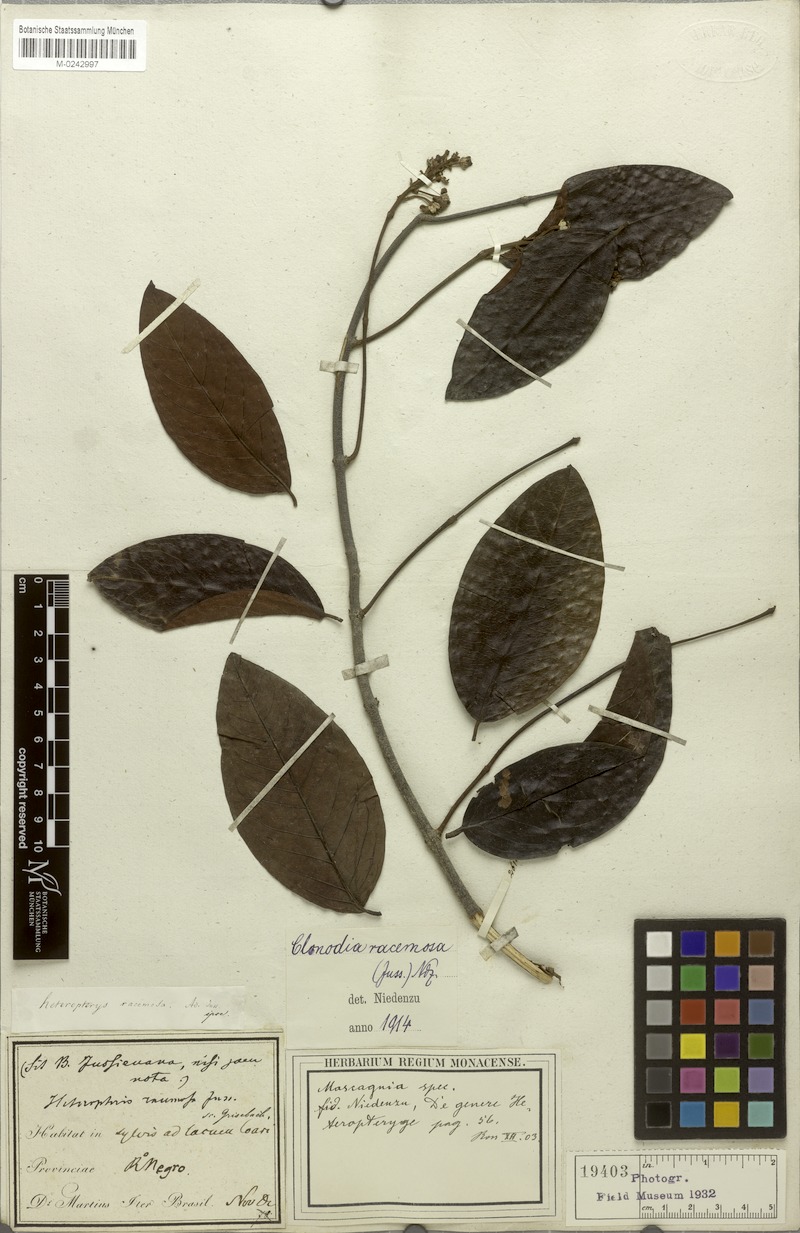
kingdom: Plantae
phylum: Tracheophyta
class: Magnoliopsida
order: Malpighiales
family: Malpighiaceae
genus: Heteropterys
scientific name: Heteropterys racemosa
